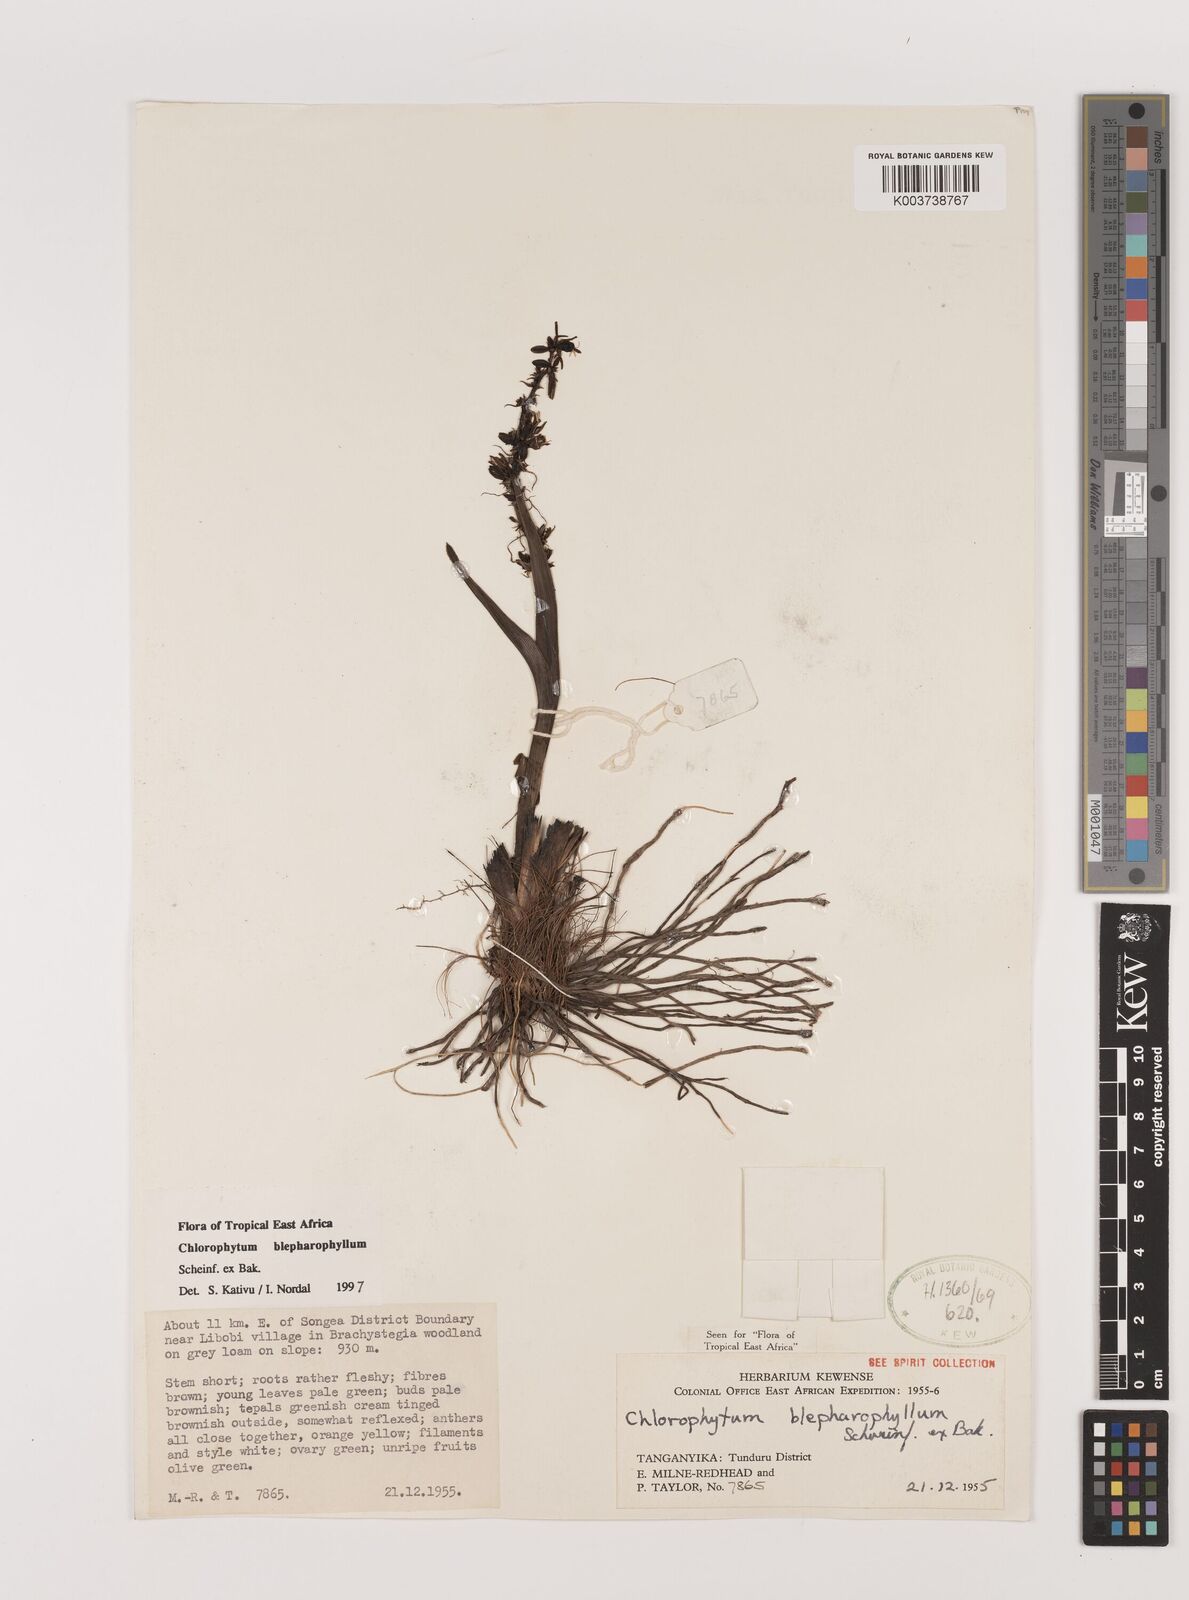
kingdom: Plantae
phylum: Tracheophyta
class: Liliopsida
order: Asparagales
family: Asparagaceae
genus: Chlorophytum
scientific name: Chlorophytum blepharophyllum
